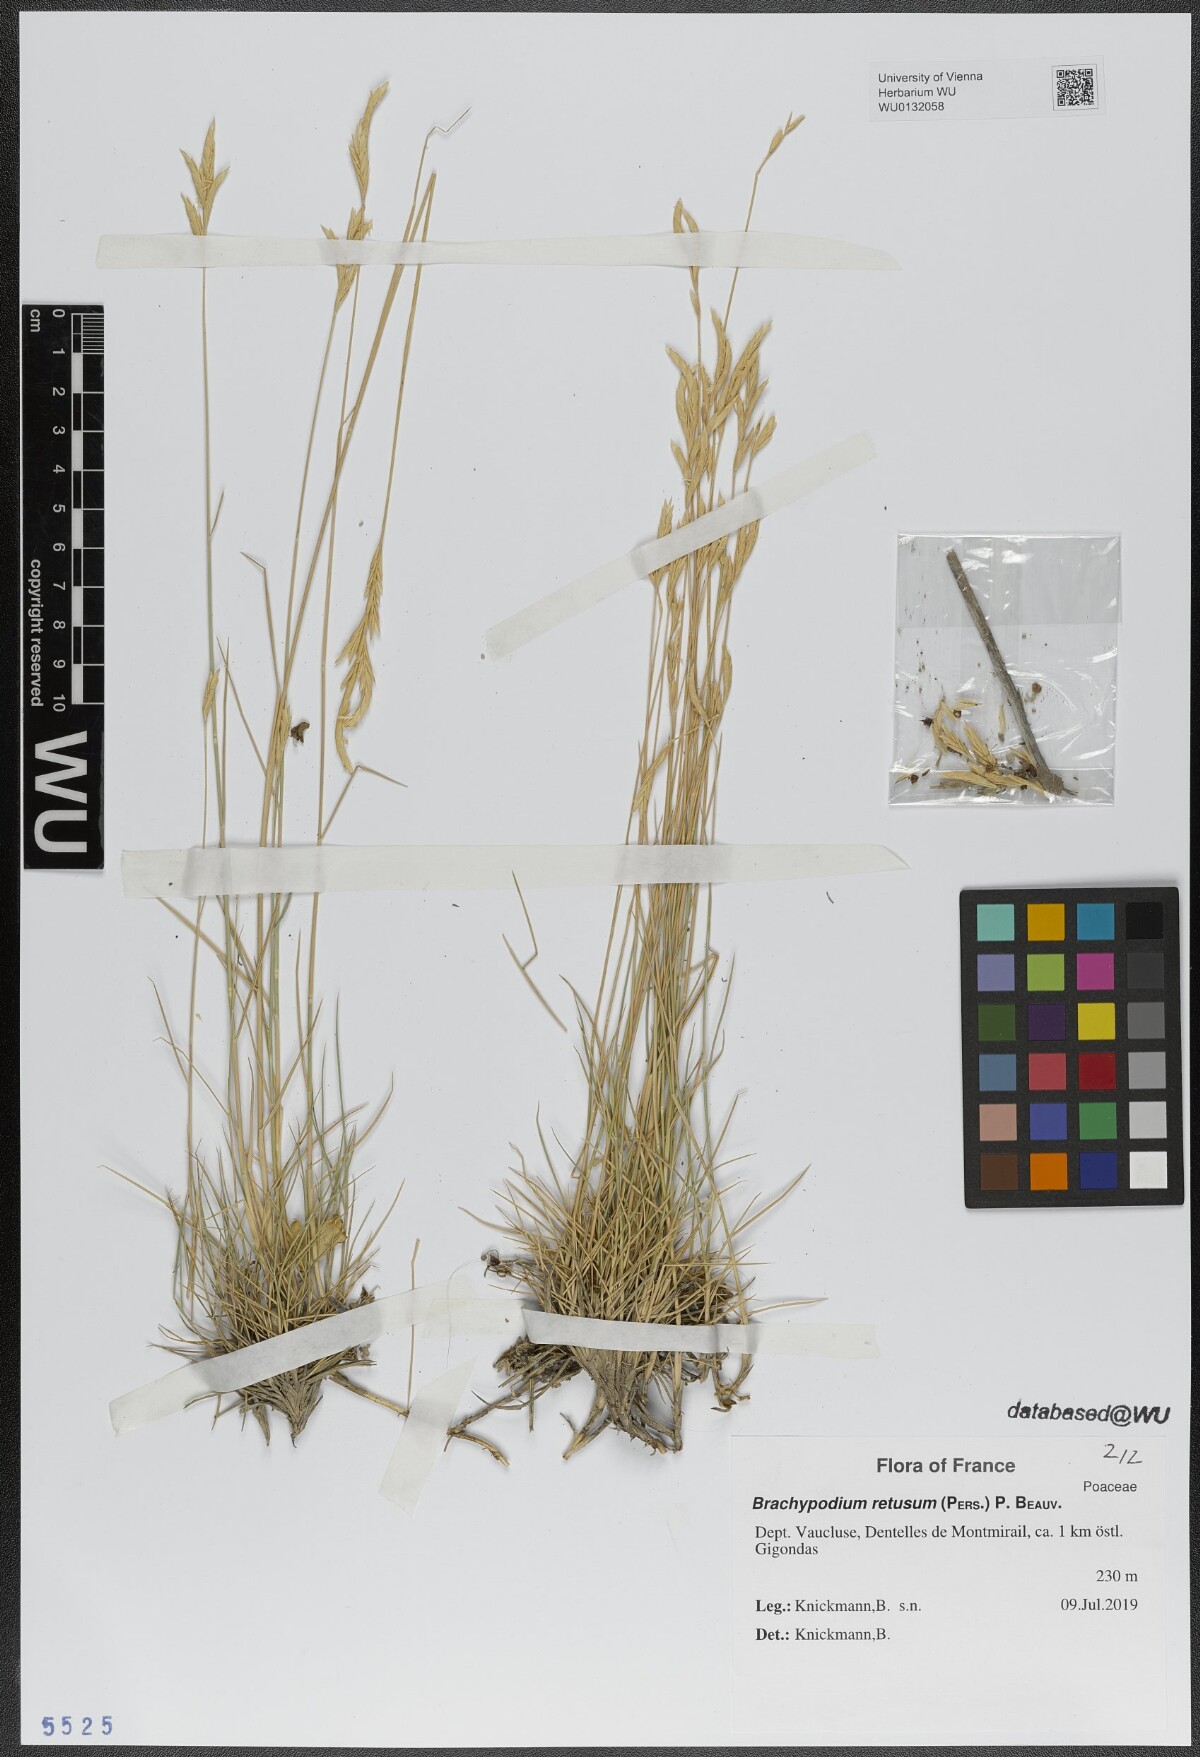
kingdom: Plantae
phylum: Tracheophyta
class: Liliopsida
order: Poales
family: Poaceae
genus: Brachypodium
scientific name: Brachypodium retusum
